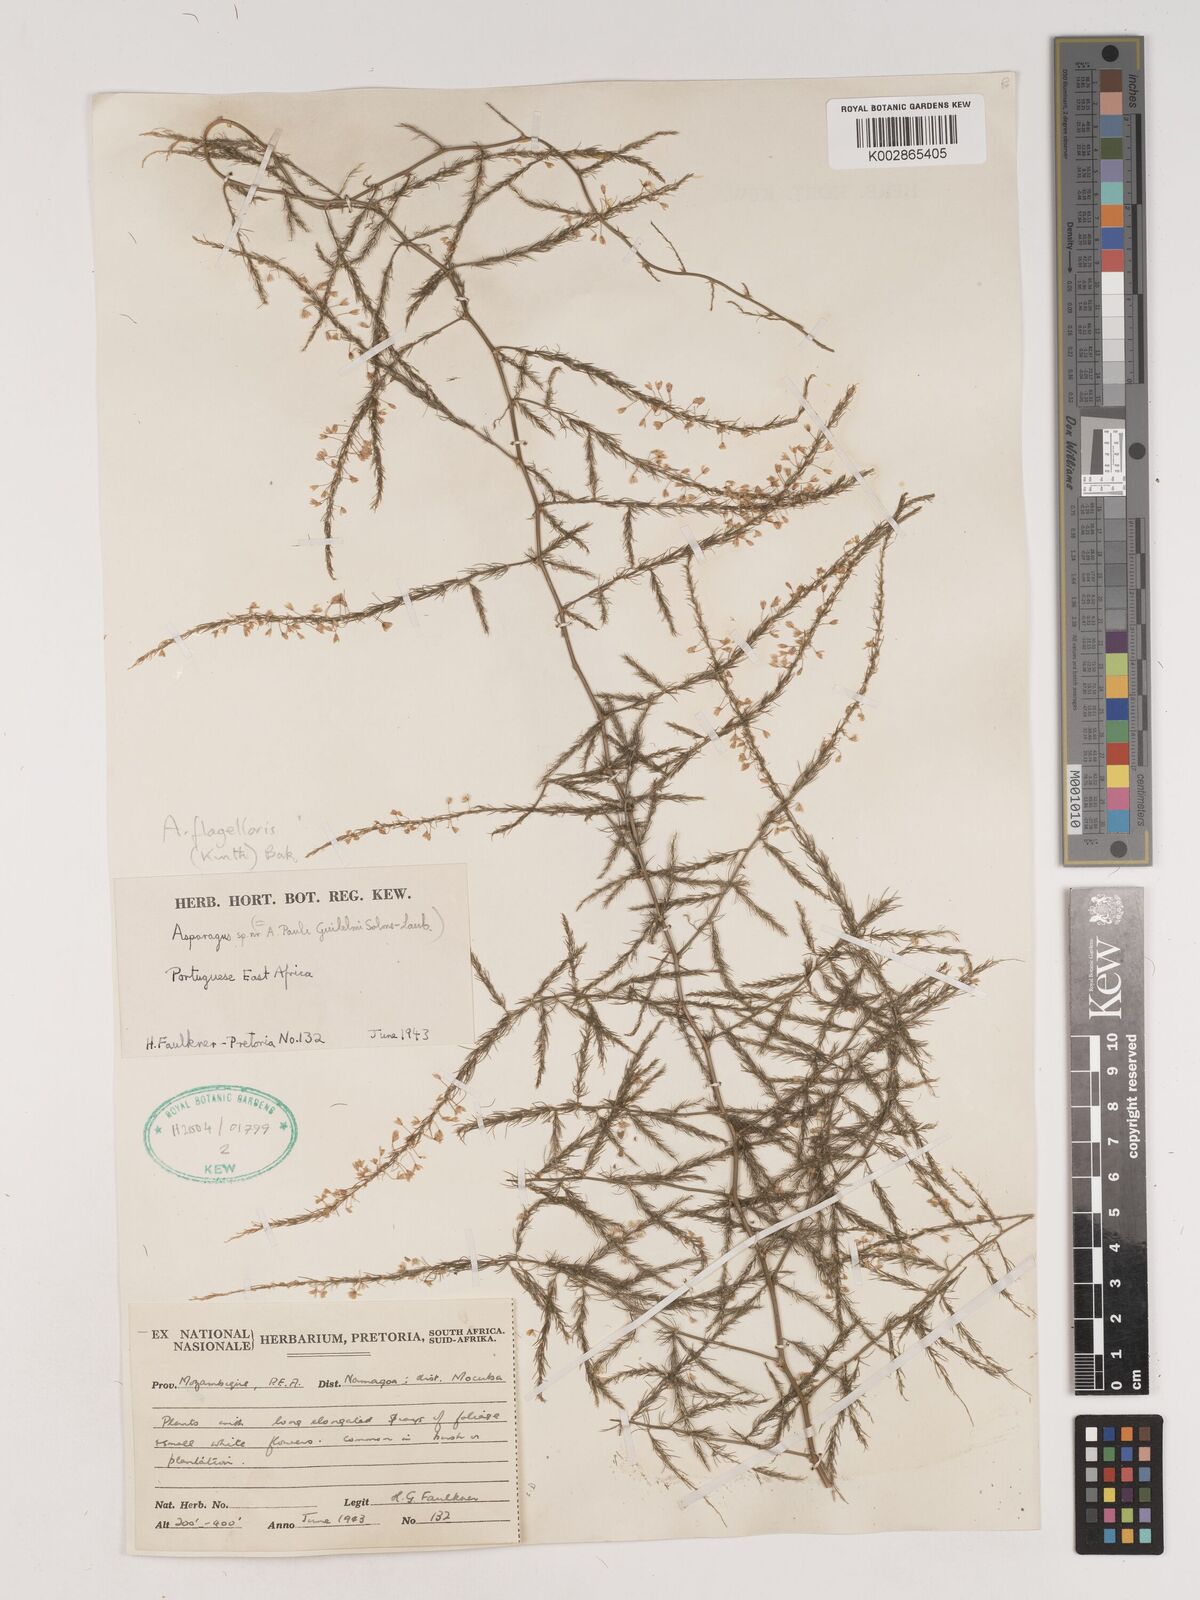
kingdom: Plantae
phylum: Tracheophyta
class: Liliopsida
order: Asparagales
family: Asparagaceae
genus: Asparagus
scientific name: Asparagus flagellaris
